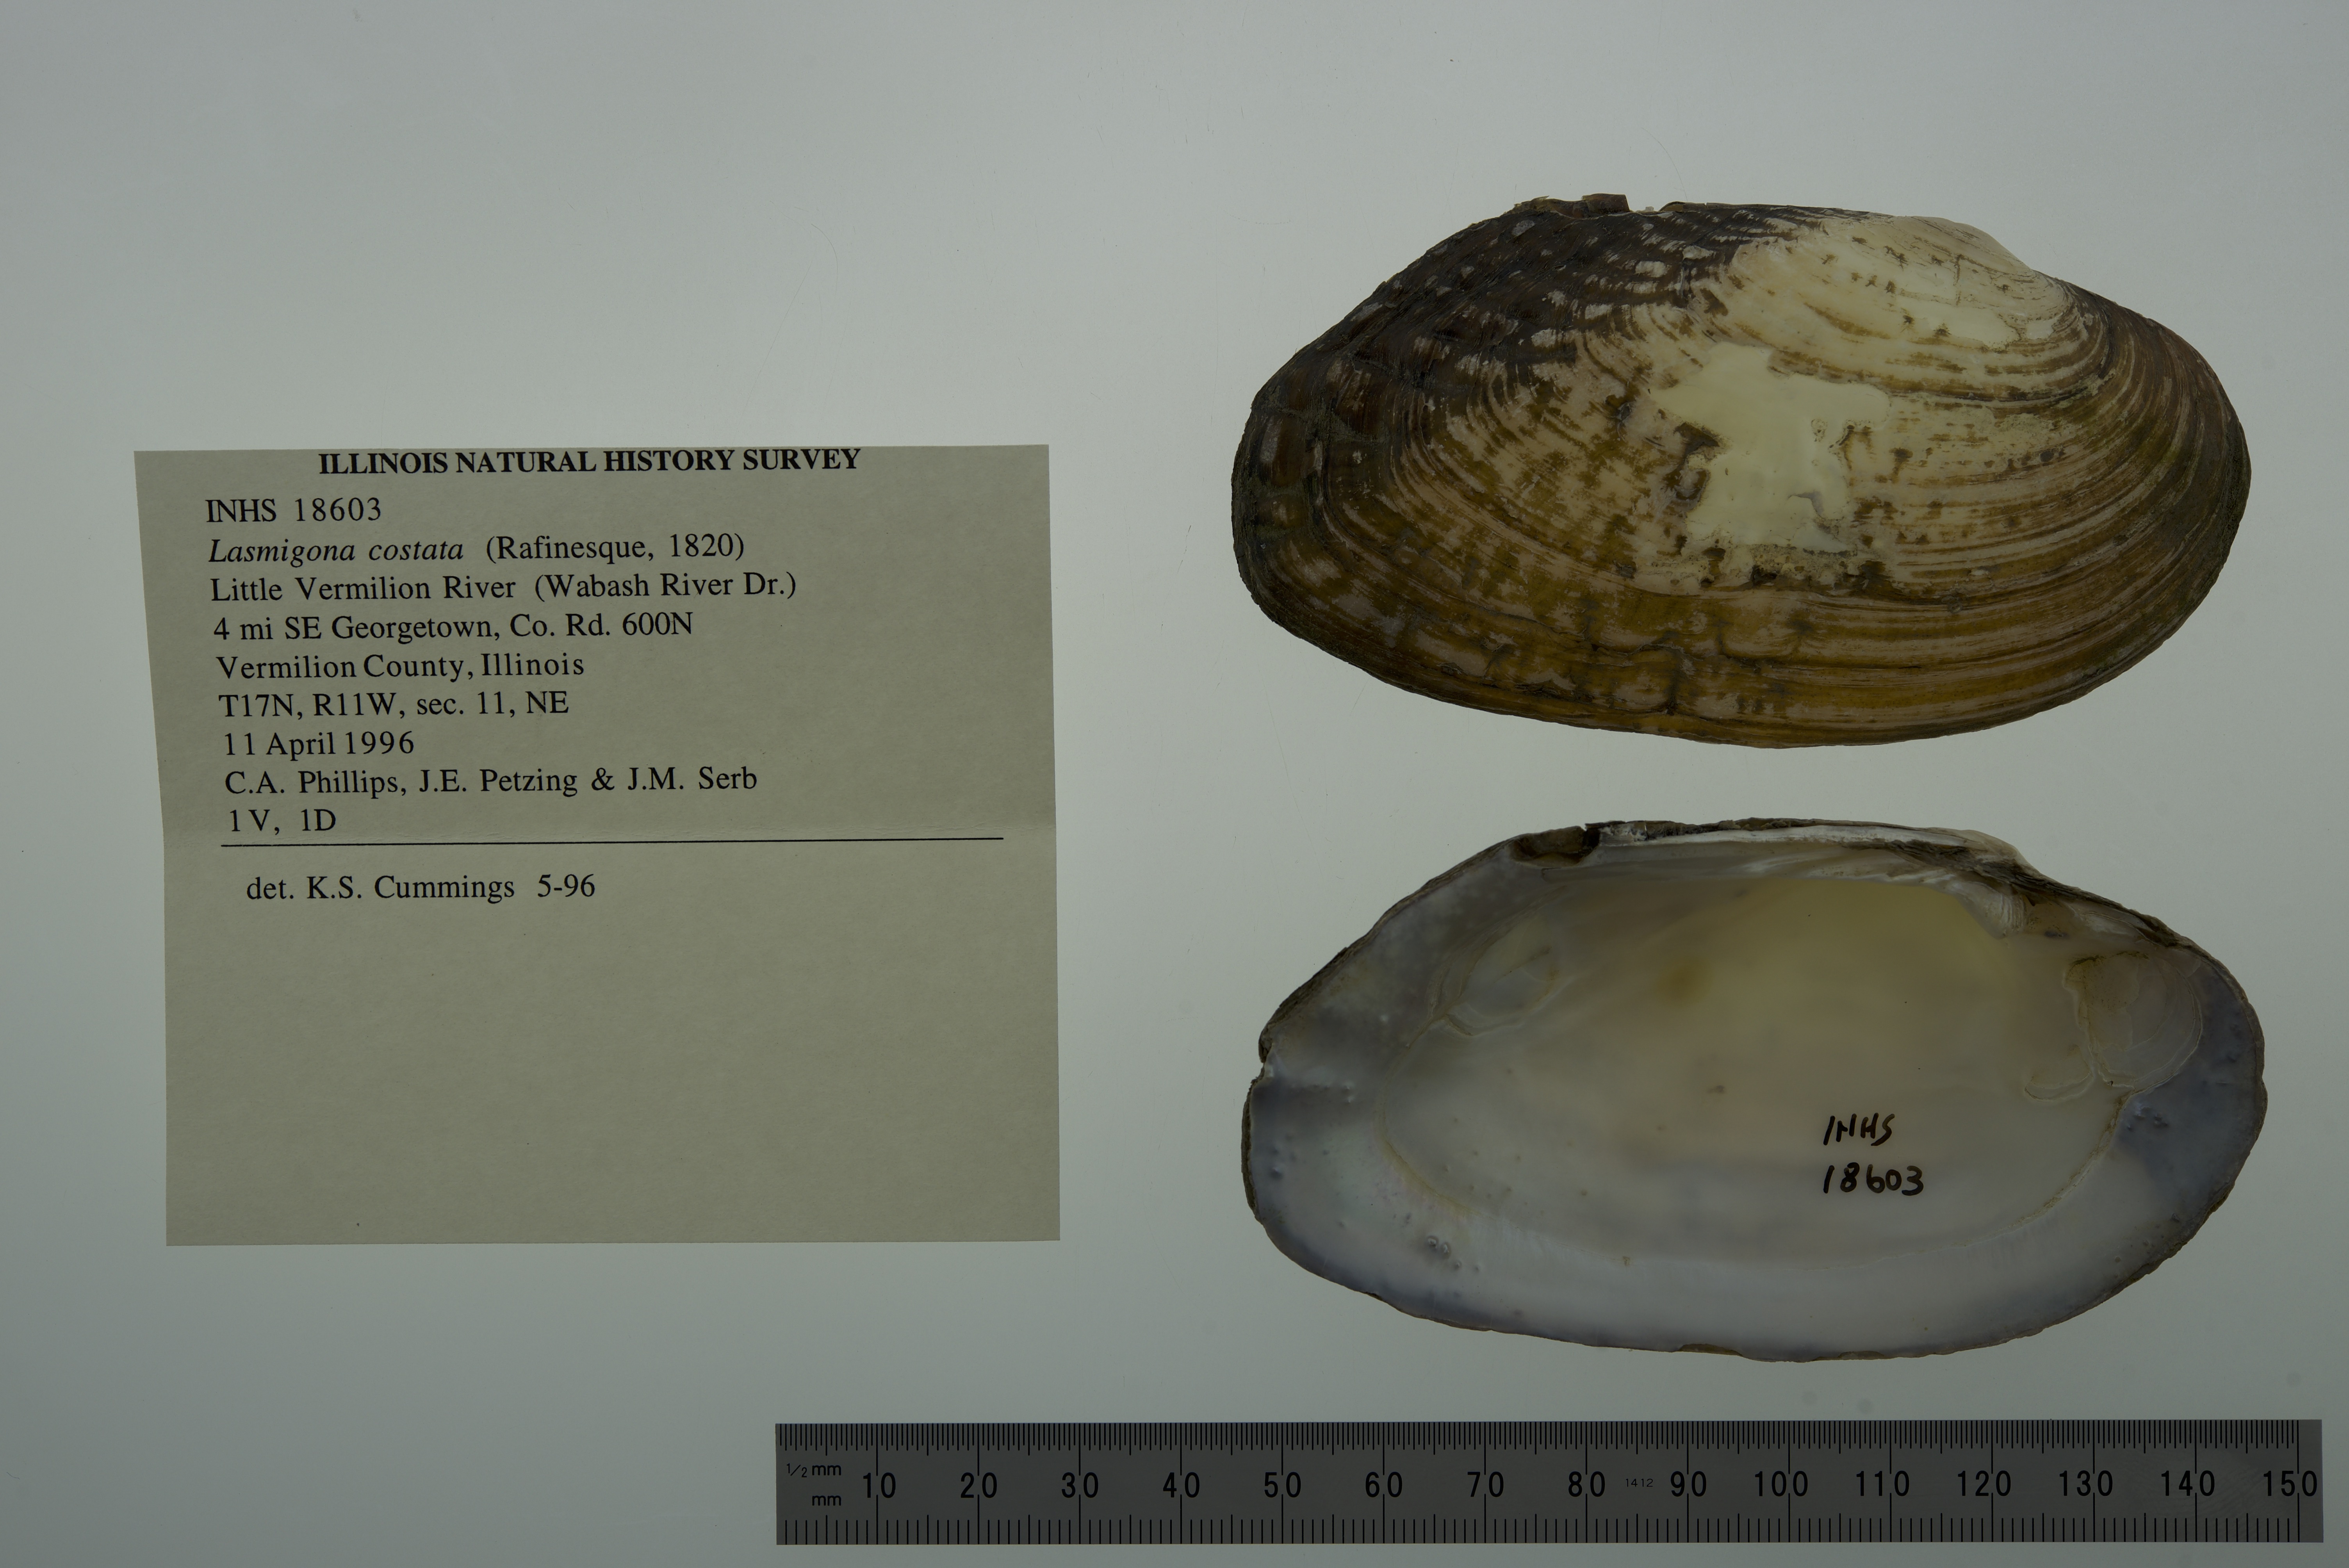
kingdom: Animalia
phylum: Mollusca
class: Bivalvia
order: Unionida
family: Unionidae
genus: Lasmigona
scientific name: Lasmigona costata
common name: Flutedshell
